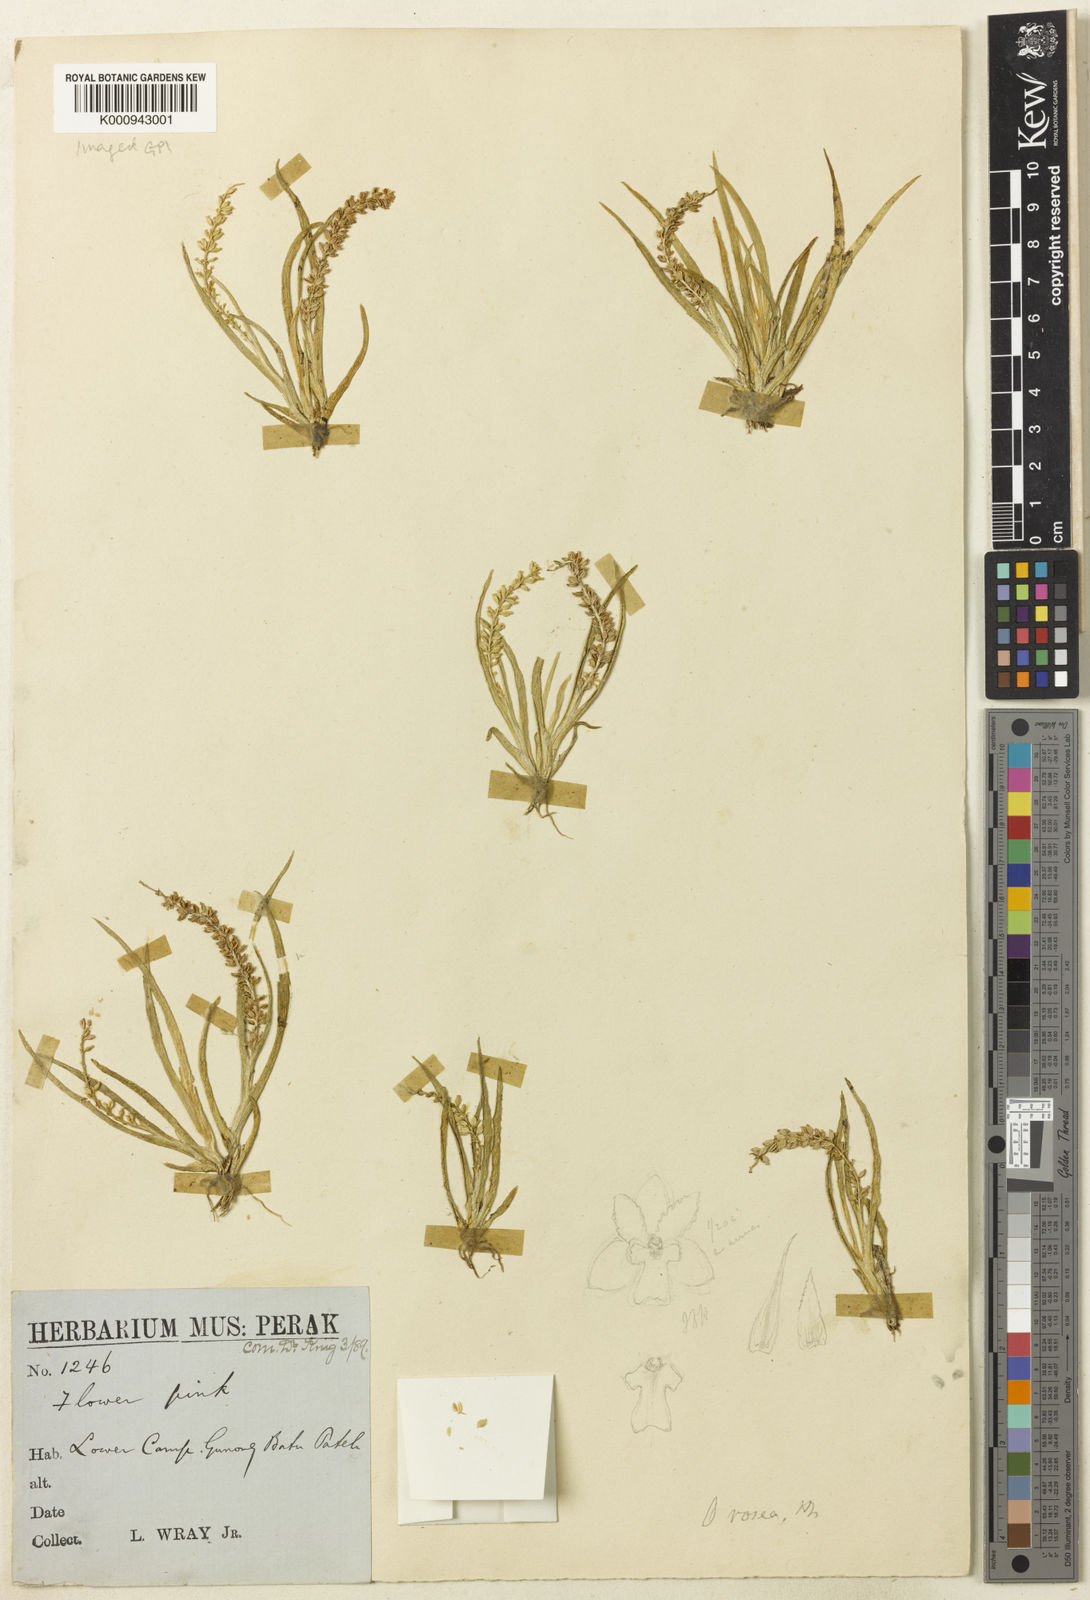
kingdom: Plantae
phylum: Tracheophyta
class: Liliopsida
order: Asparagales
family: Orchidaceae
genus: Oberonia
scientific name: Oberonia microphylla
